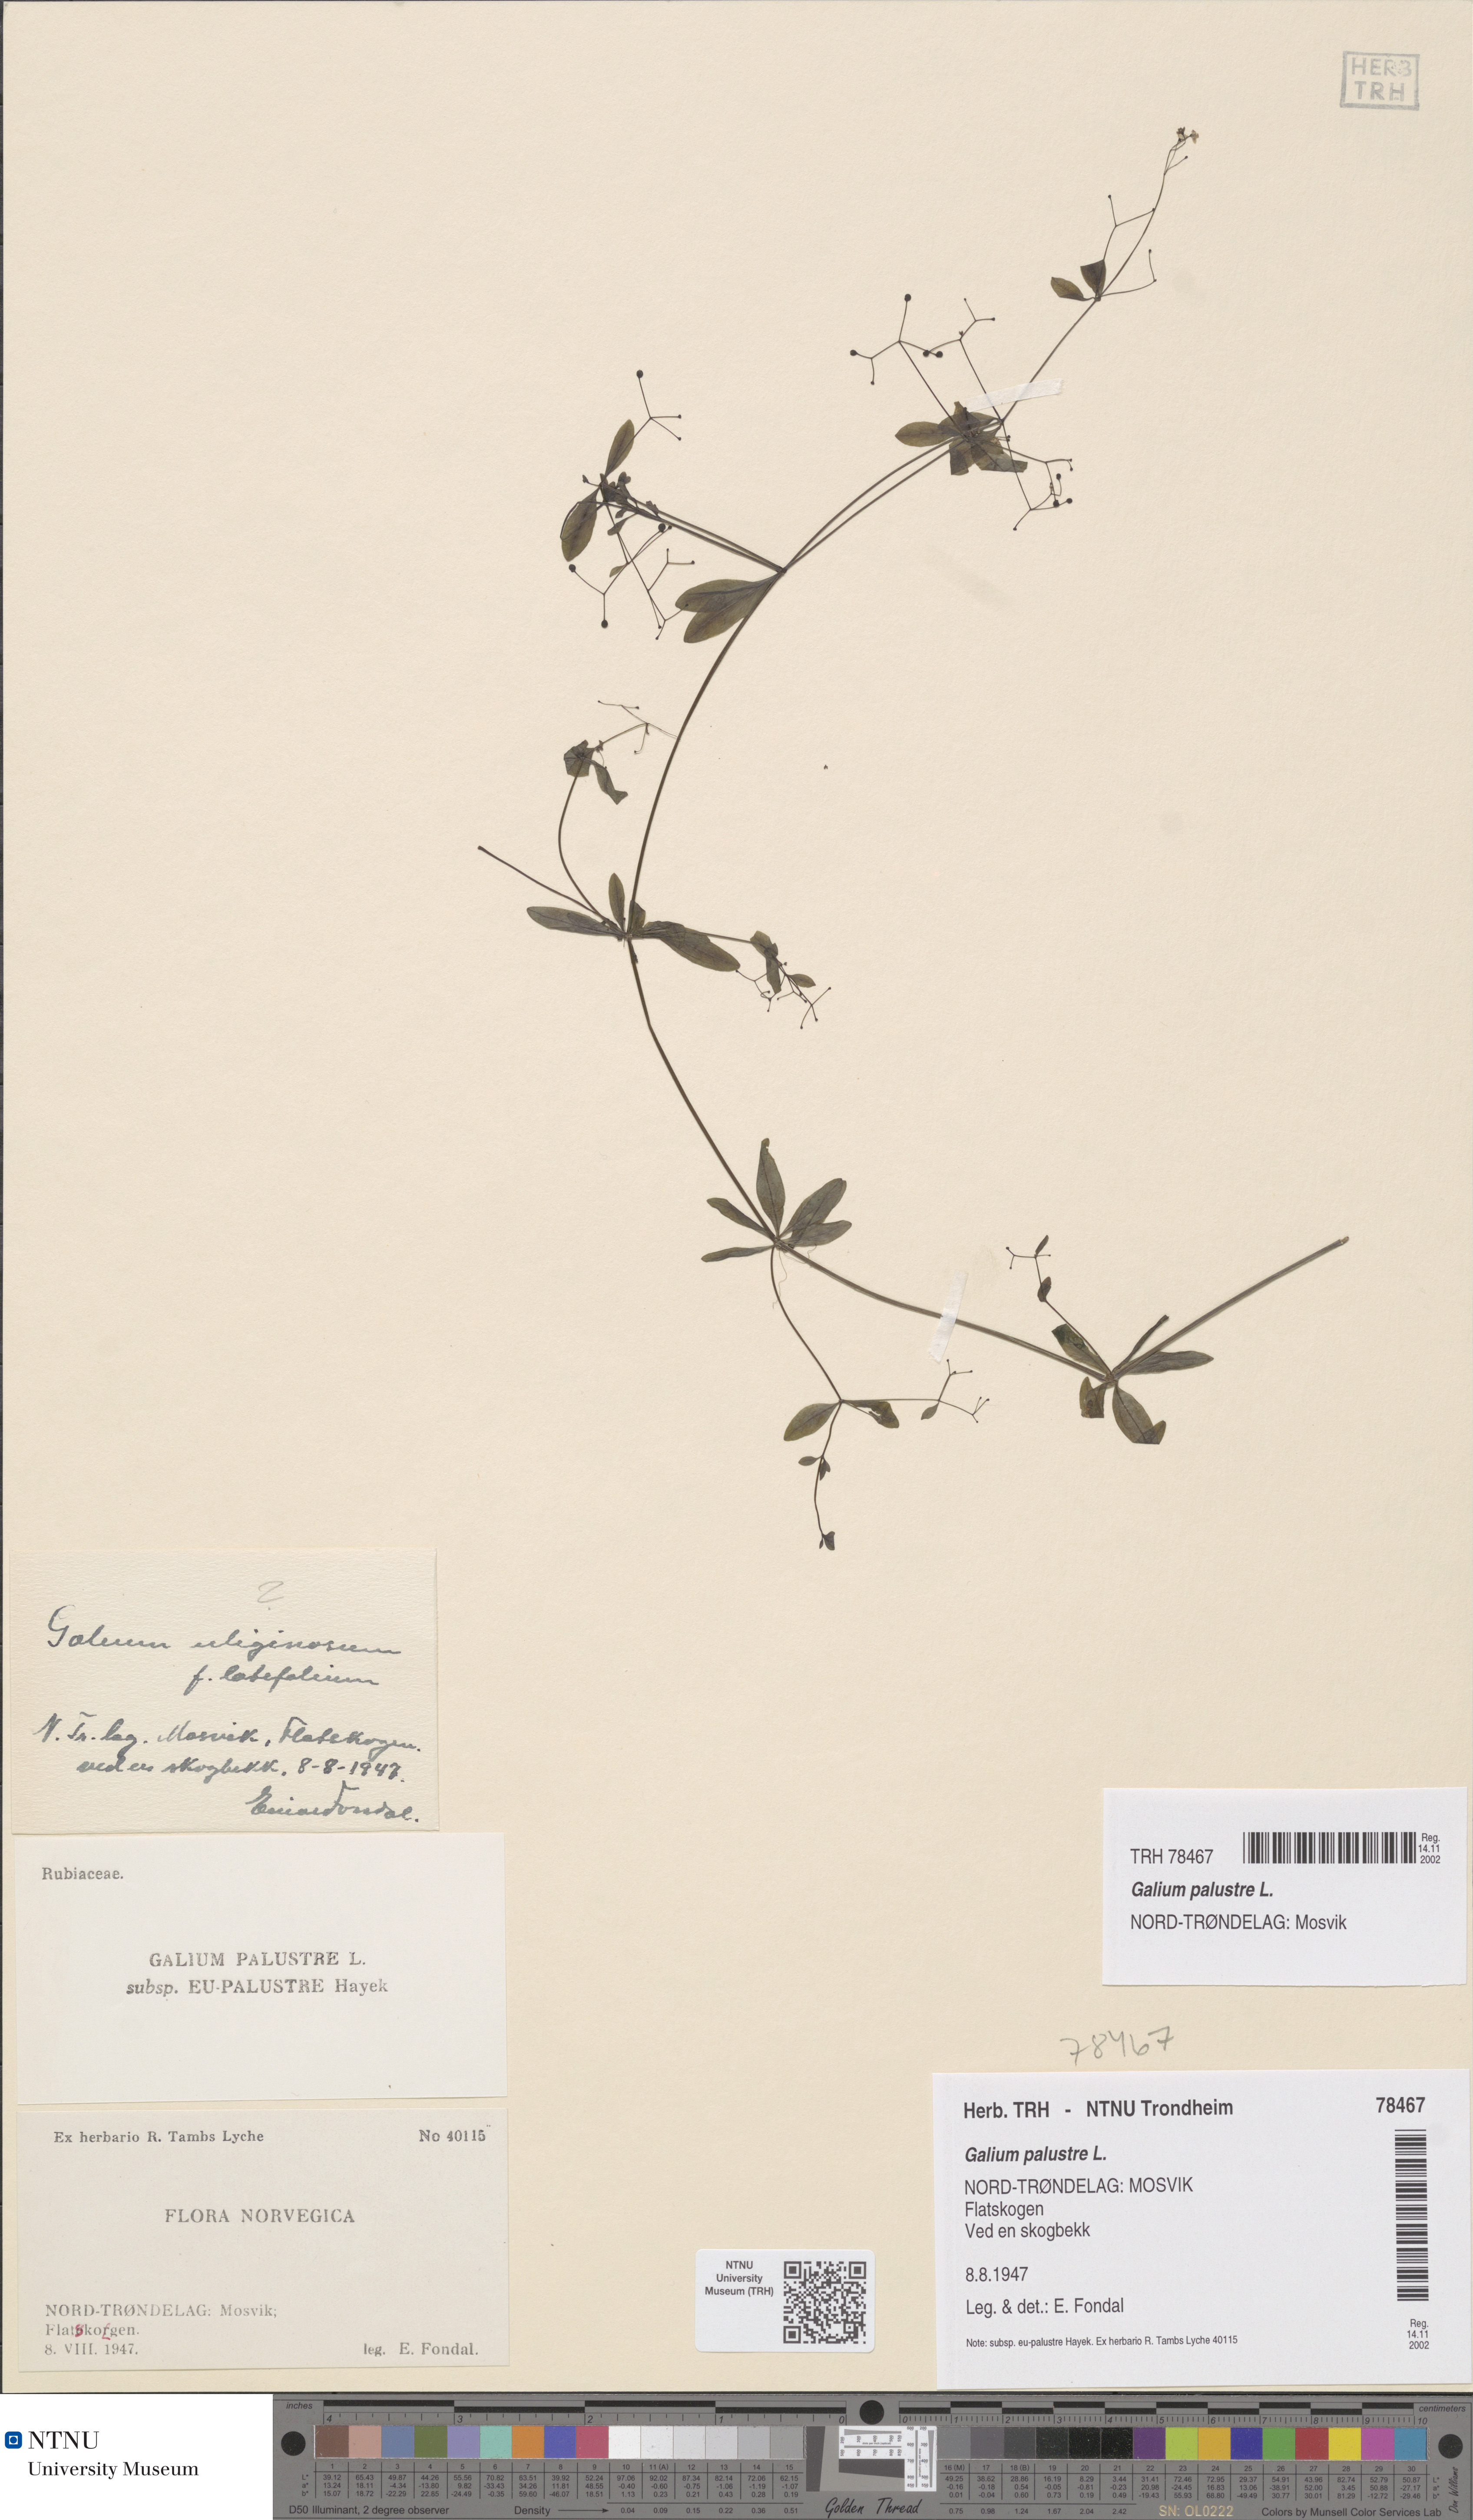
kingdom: Plantae
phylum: Tracheophyta
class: Magnoliopsida
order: Gentianales
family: Rubiaceae
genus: Galium
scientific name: Galium palustre
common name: Common marsh-bedstraw
